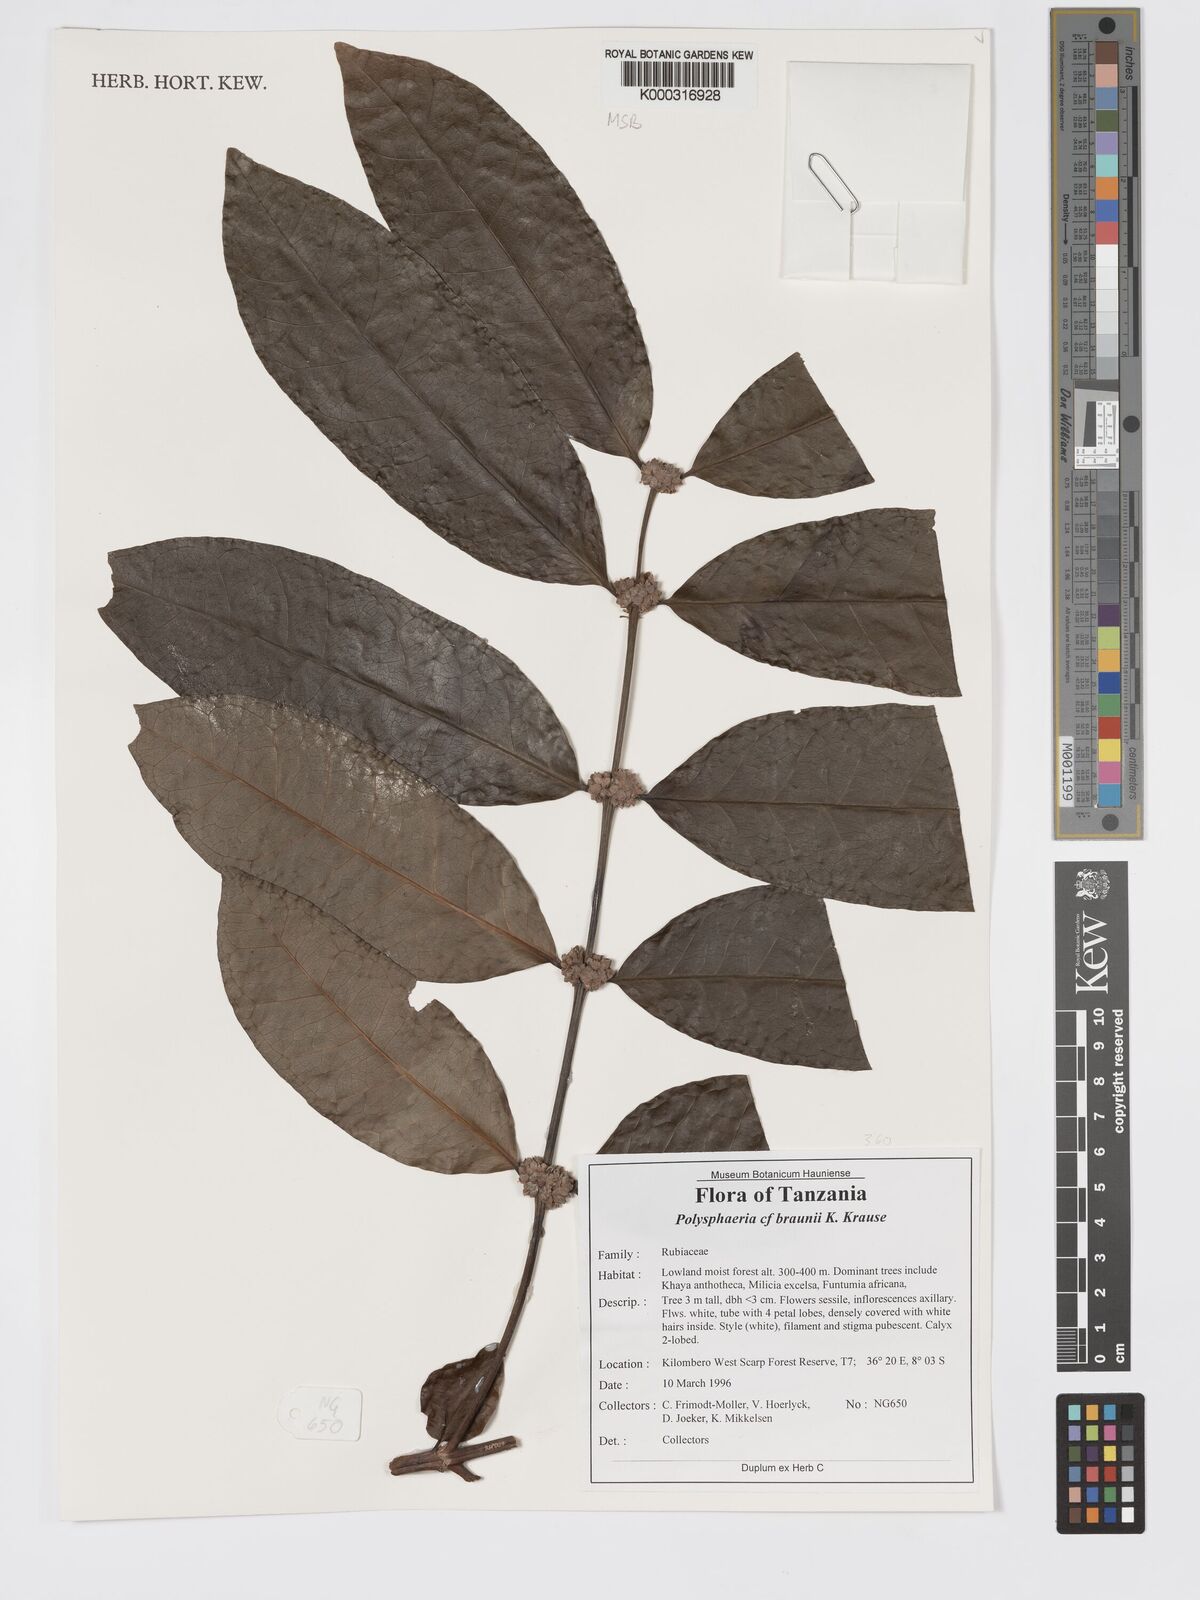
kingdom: Plantae
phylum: Tracheophyta
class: Magnoliopsida
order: Gentianales
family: Rubiaceae
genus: Polysphaeria
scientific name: Polysphaeria braunii
